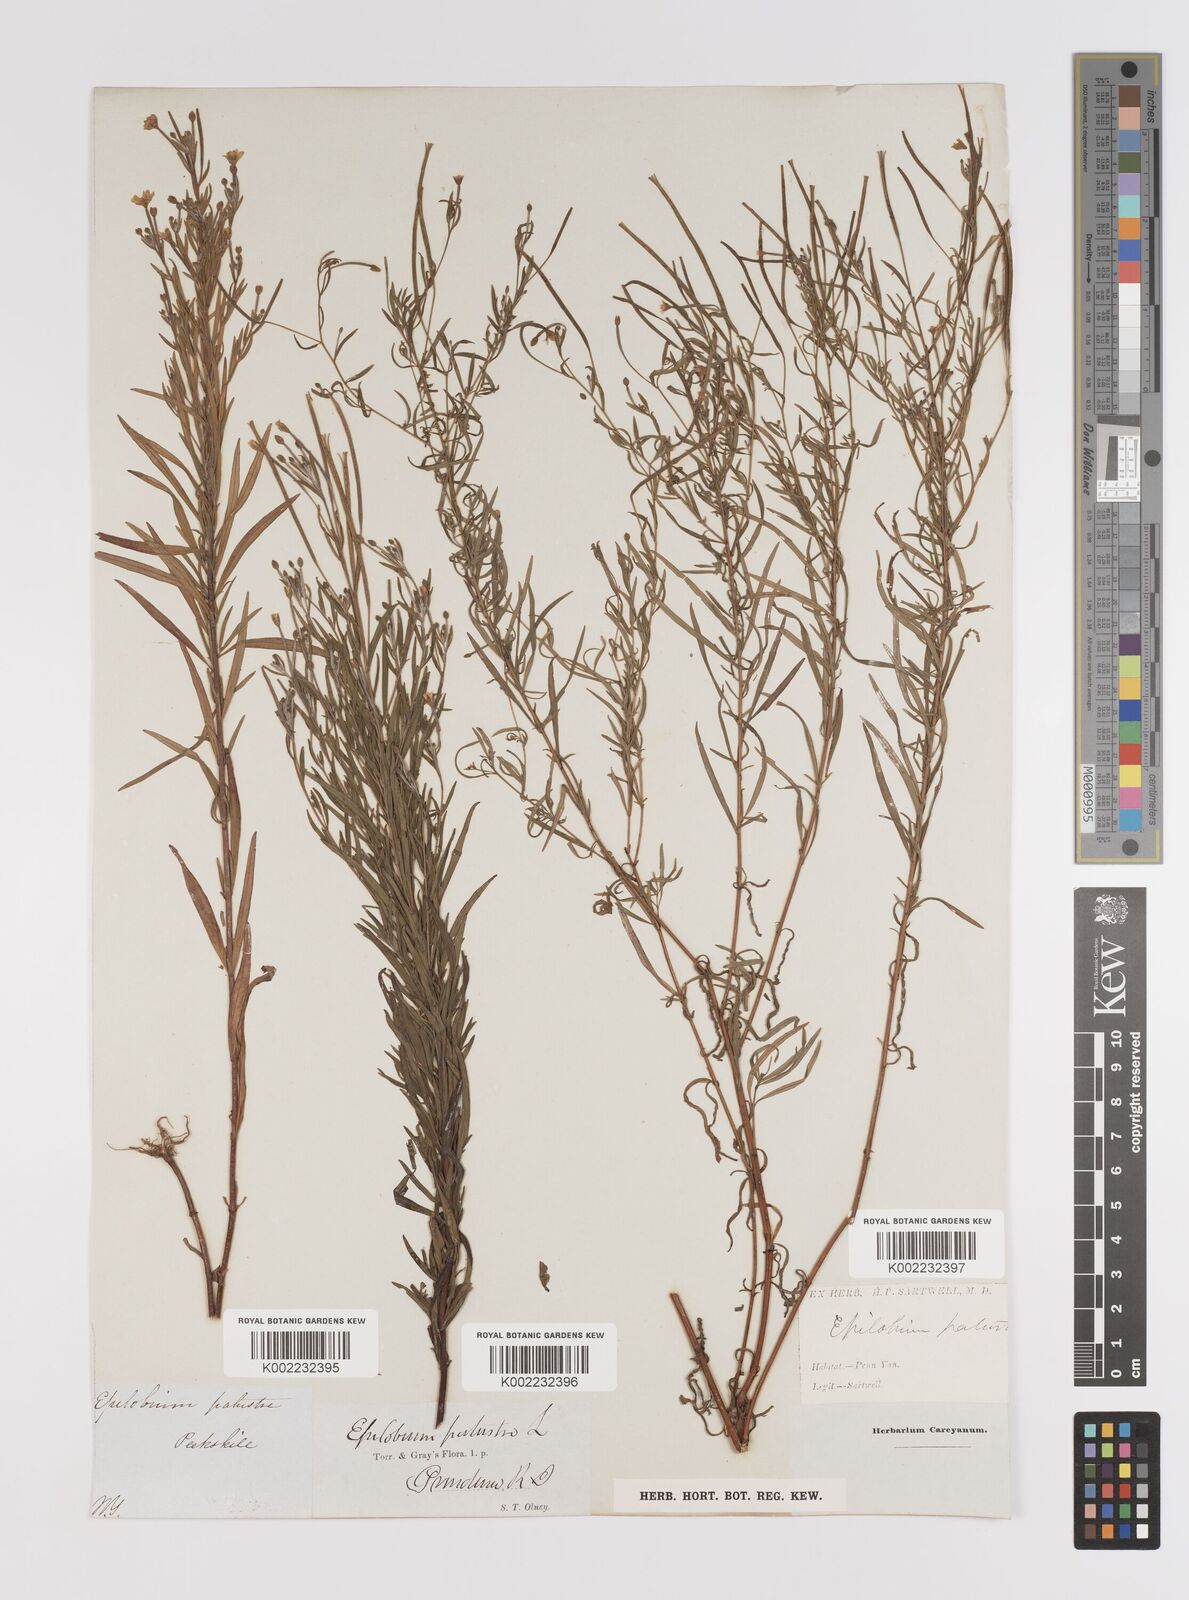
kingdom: Plantae
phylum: Tracheophyta
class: Magnoliopsida
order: Myrtales
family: Onagraceae
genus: Epilobium
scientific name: Epilobium palustre
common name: Marsh willowherb
